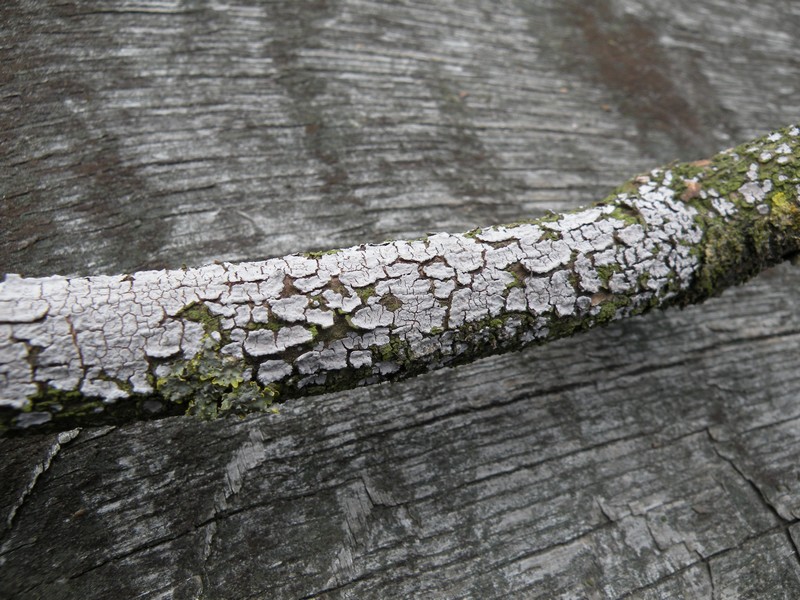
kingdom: Fungi
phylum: Basidiomycota
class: Agaricomycetes
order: Russulales
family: Peniophoraceae
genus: Peniophora
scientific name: Peniophora lycii
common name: grynet voksskind
